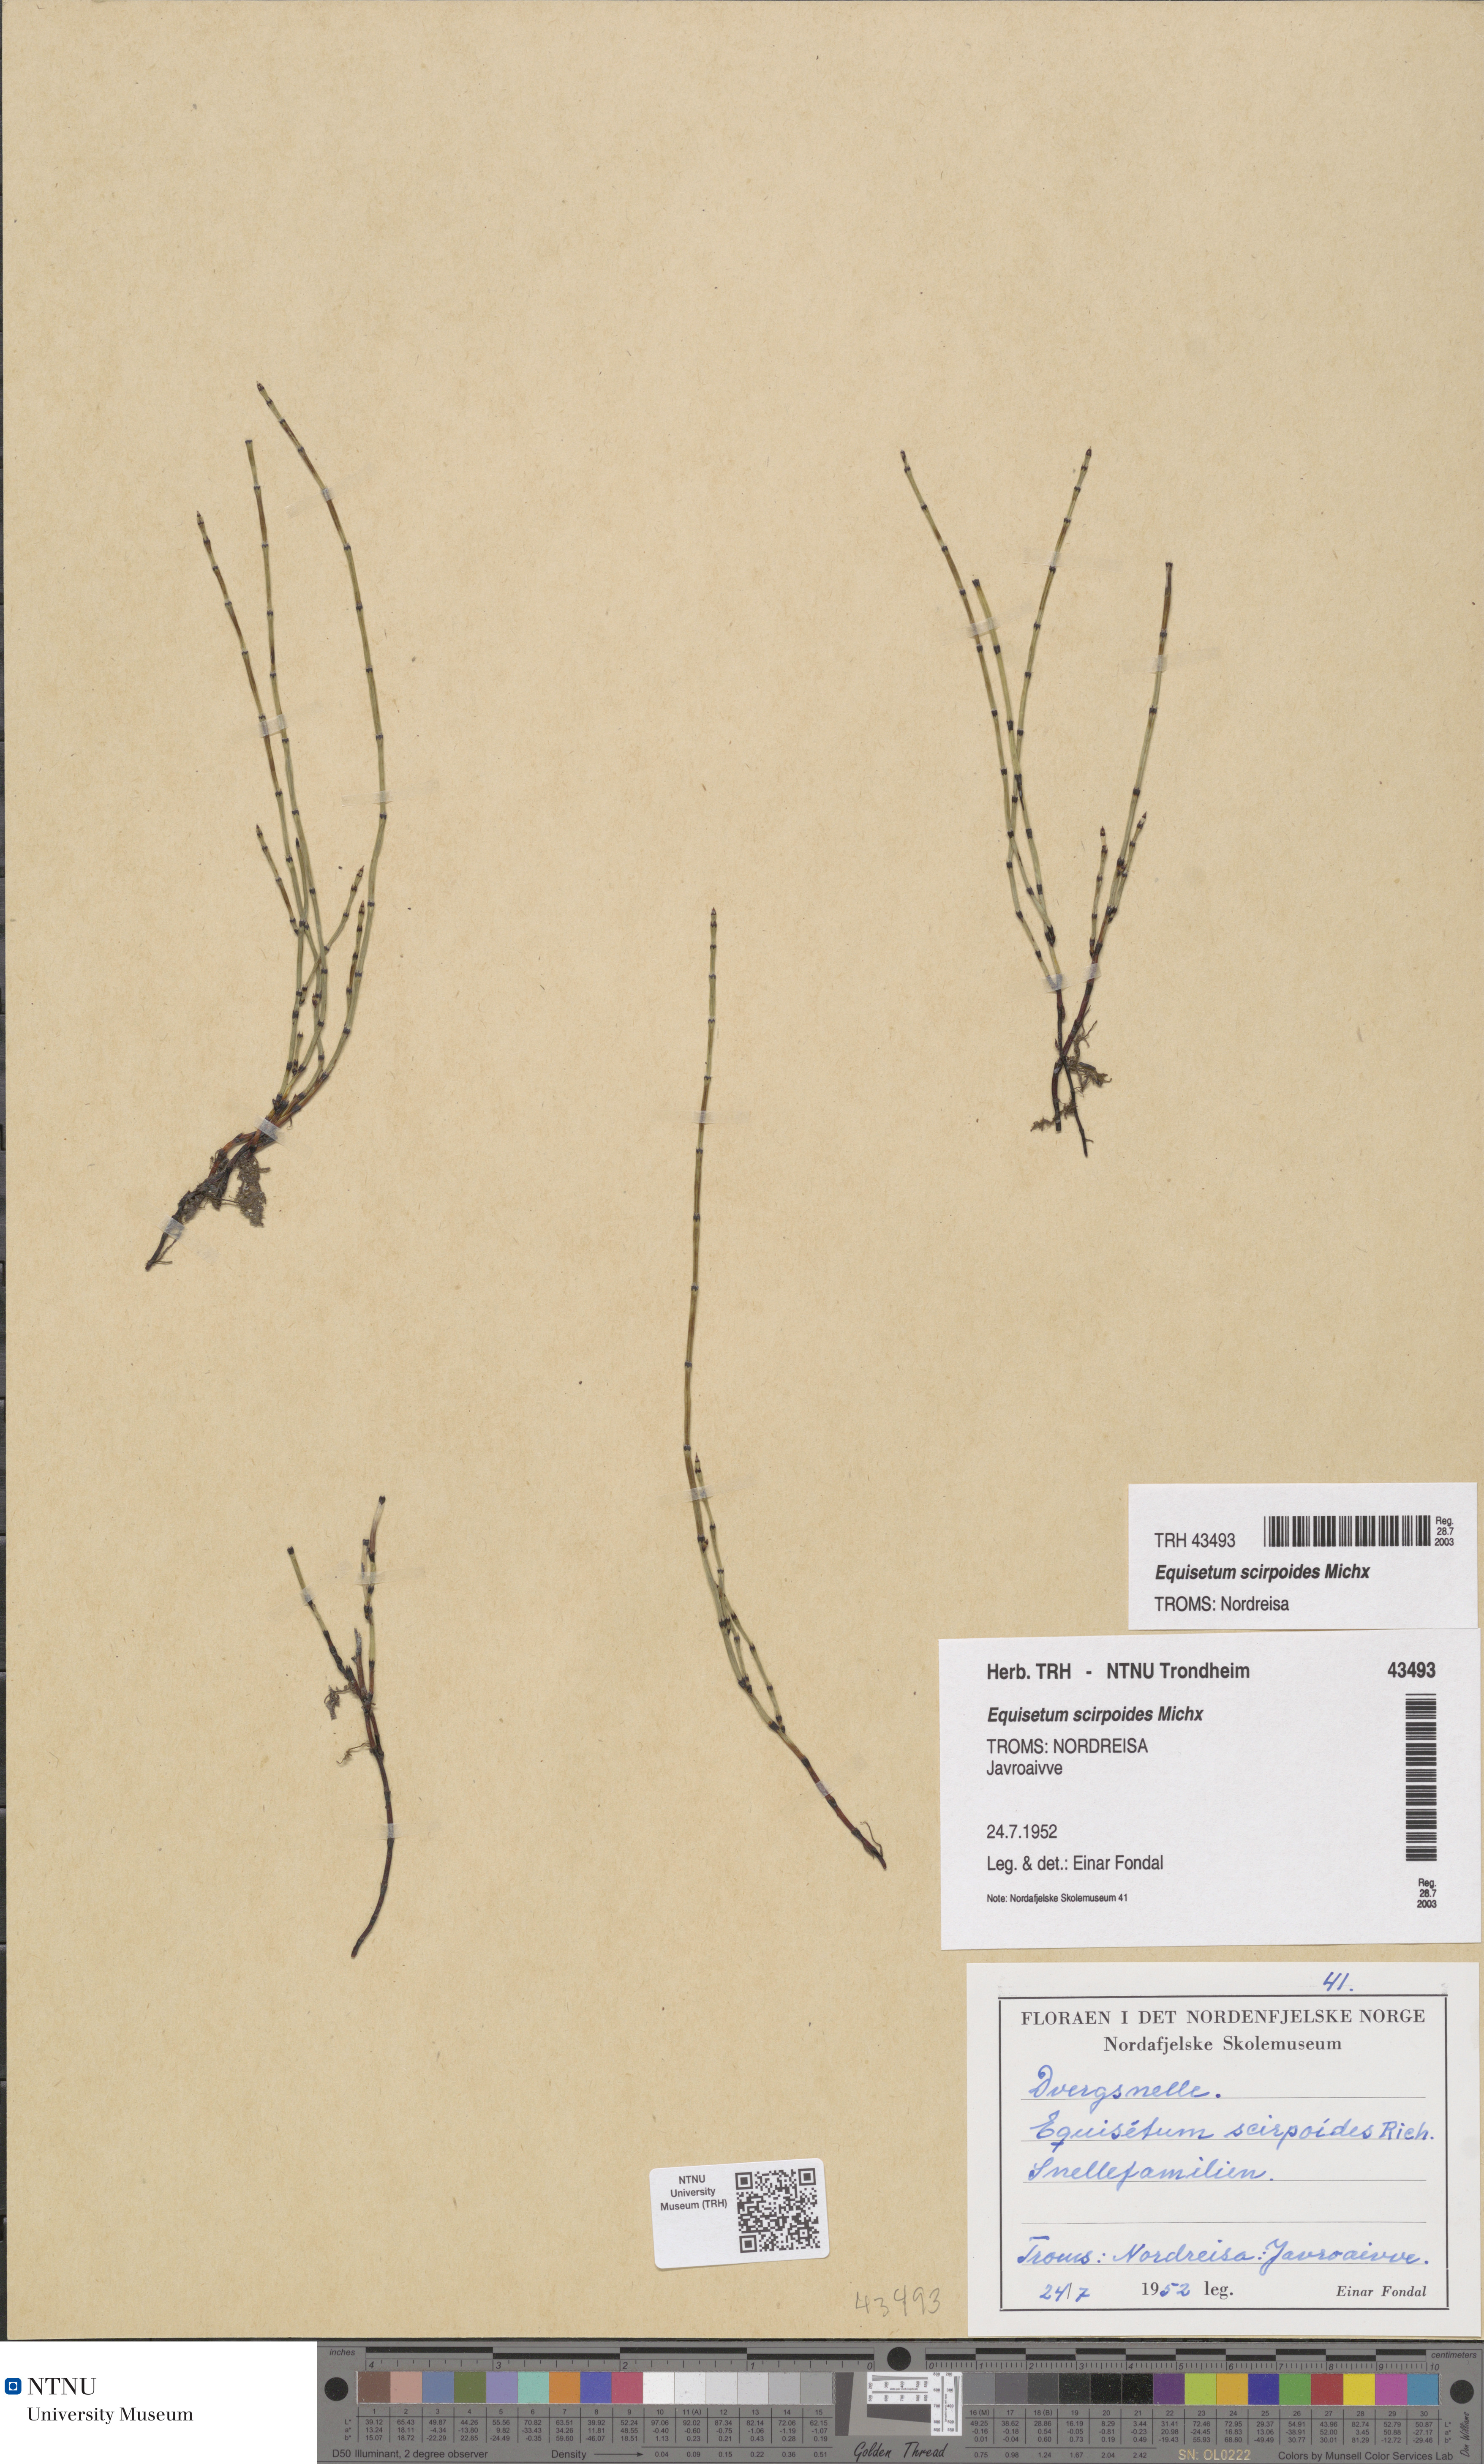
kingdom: Plantae
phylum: Tracheophyta
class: Polypodiopsida
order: Equisetales
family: Equisetaceae
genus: Equisetum
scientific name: Equisetum scirpoides
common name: Delicate horsetail
